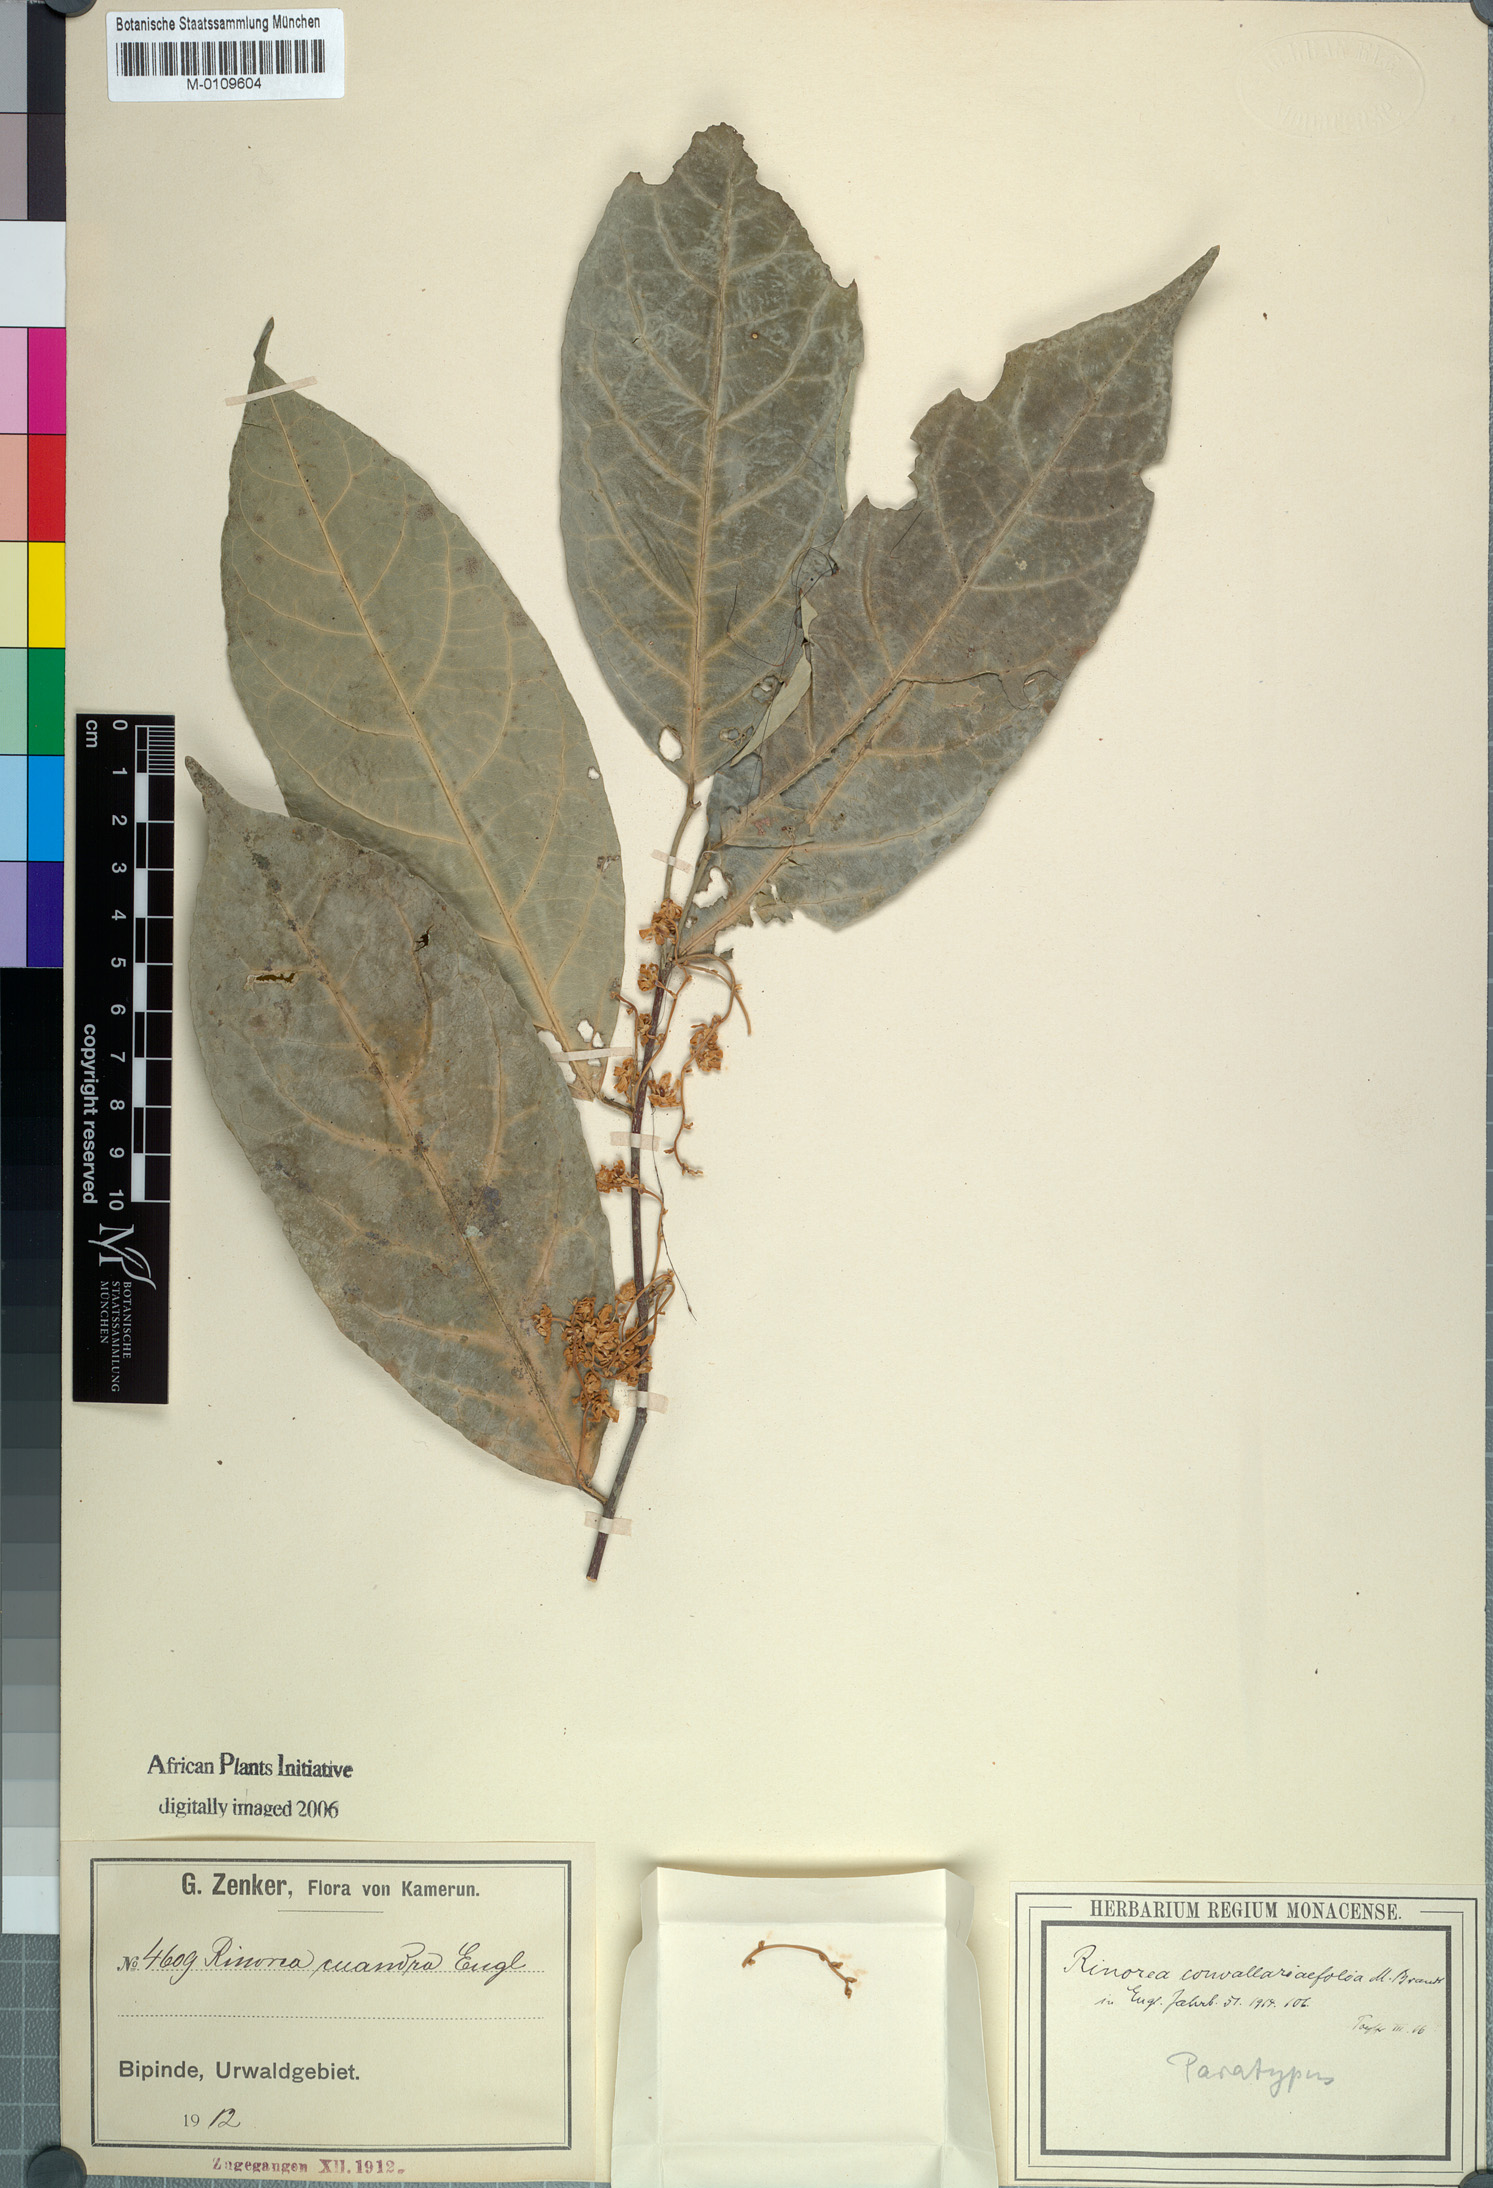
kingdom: Plantae
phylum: Tracheophyta
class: Magnoliopsida
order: Malpighiales
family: Violaceae
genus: Rinorea
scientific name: Rinorea convallarioides
